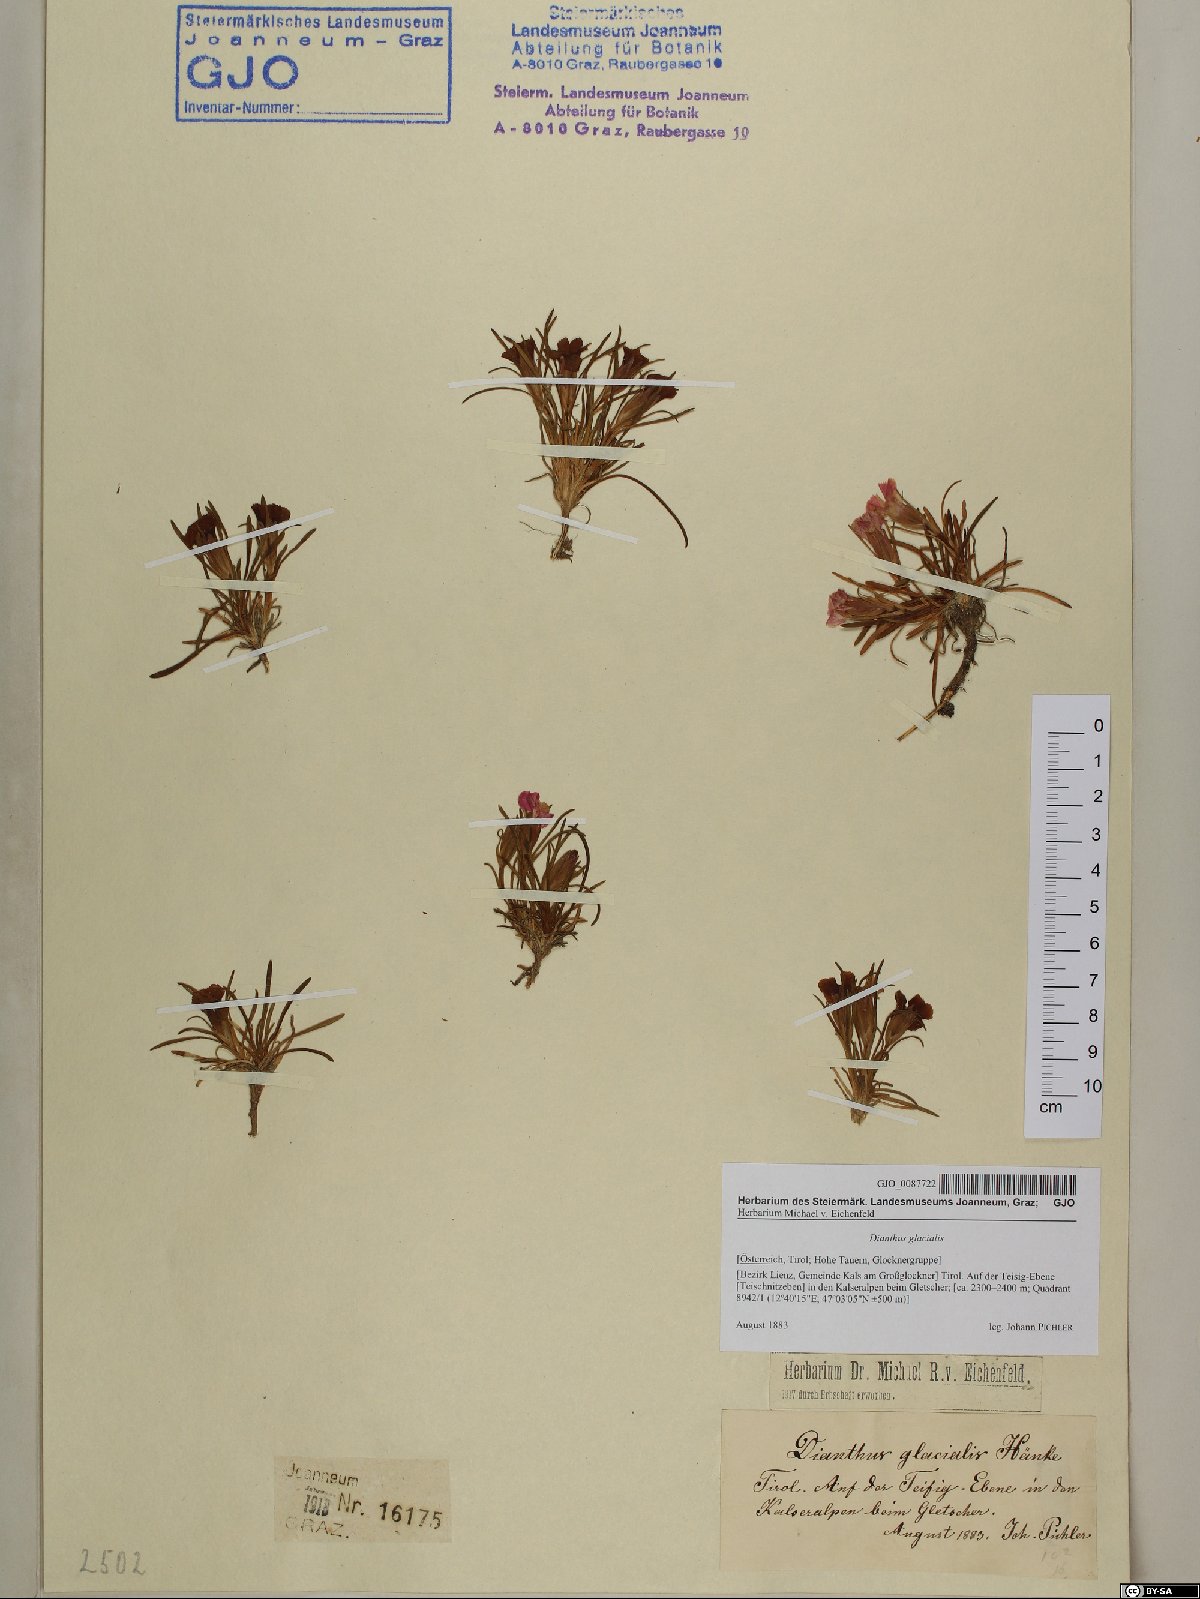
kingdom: Plantae
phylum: Tracheophyta
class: Magnoliopsida
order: Caryophyllales
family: Caryophyllaceae
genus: Dianthus
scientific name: Dianthus glacialis
